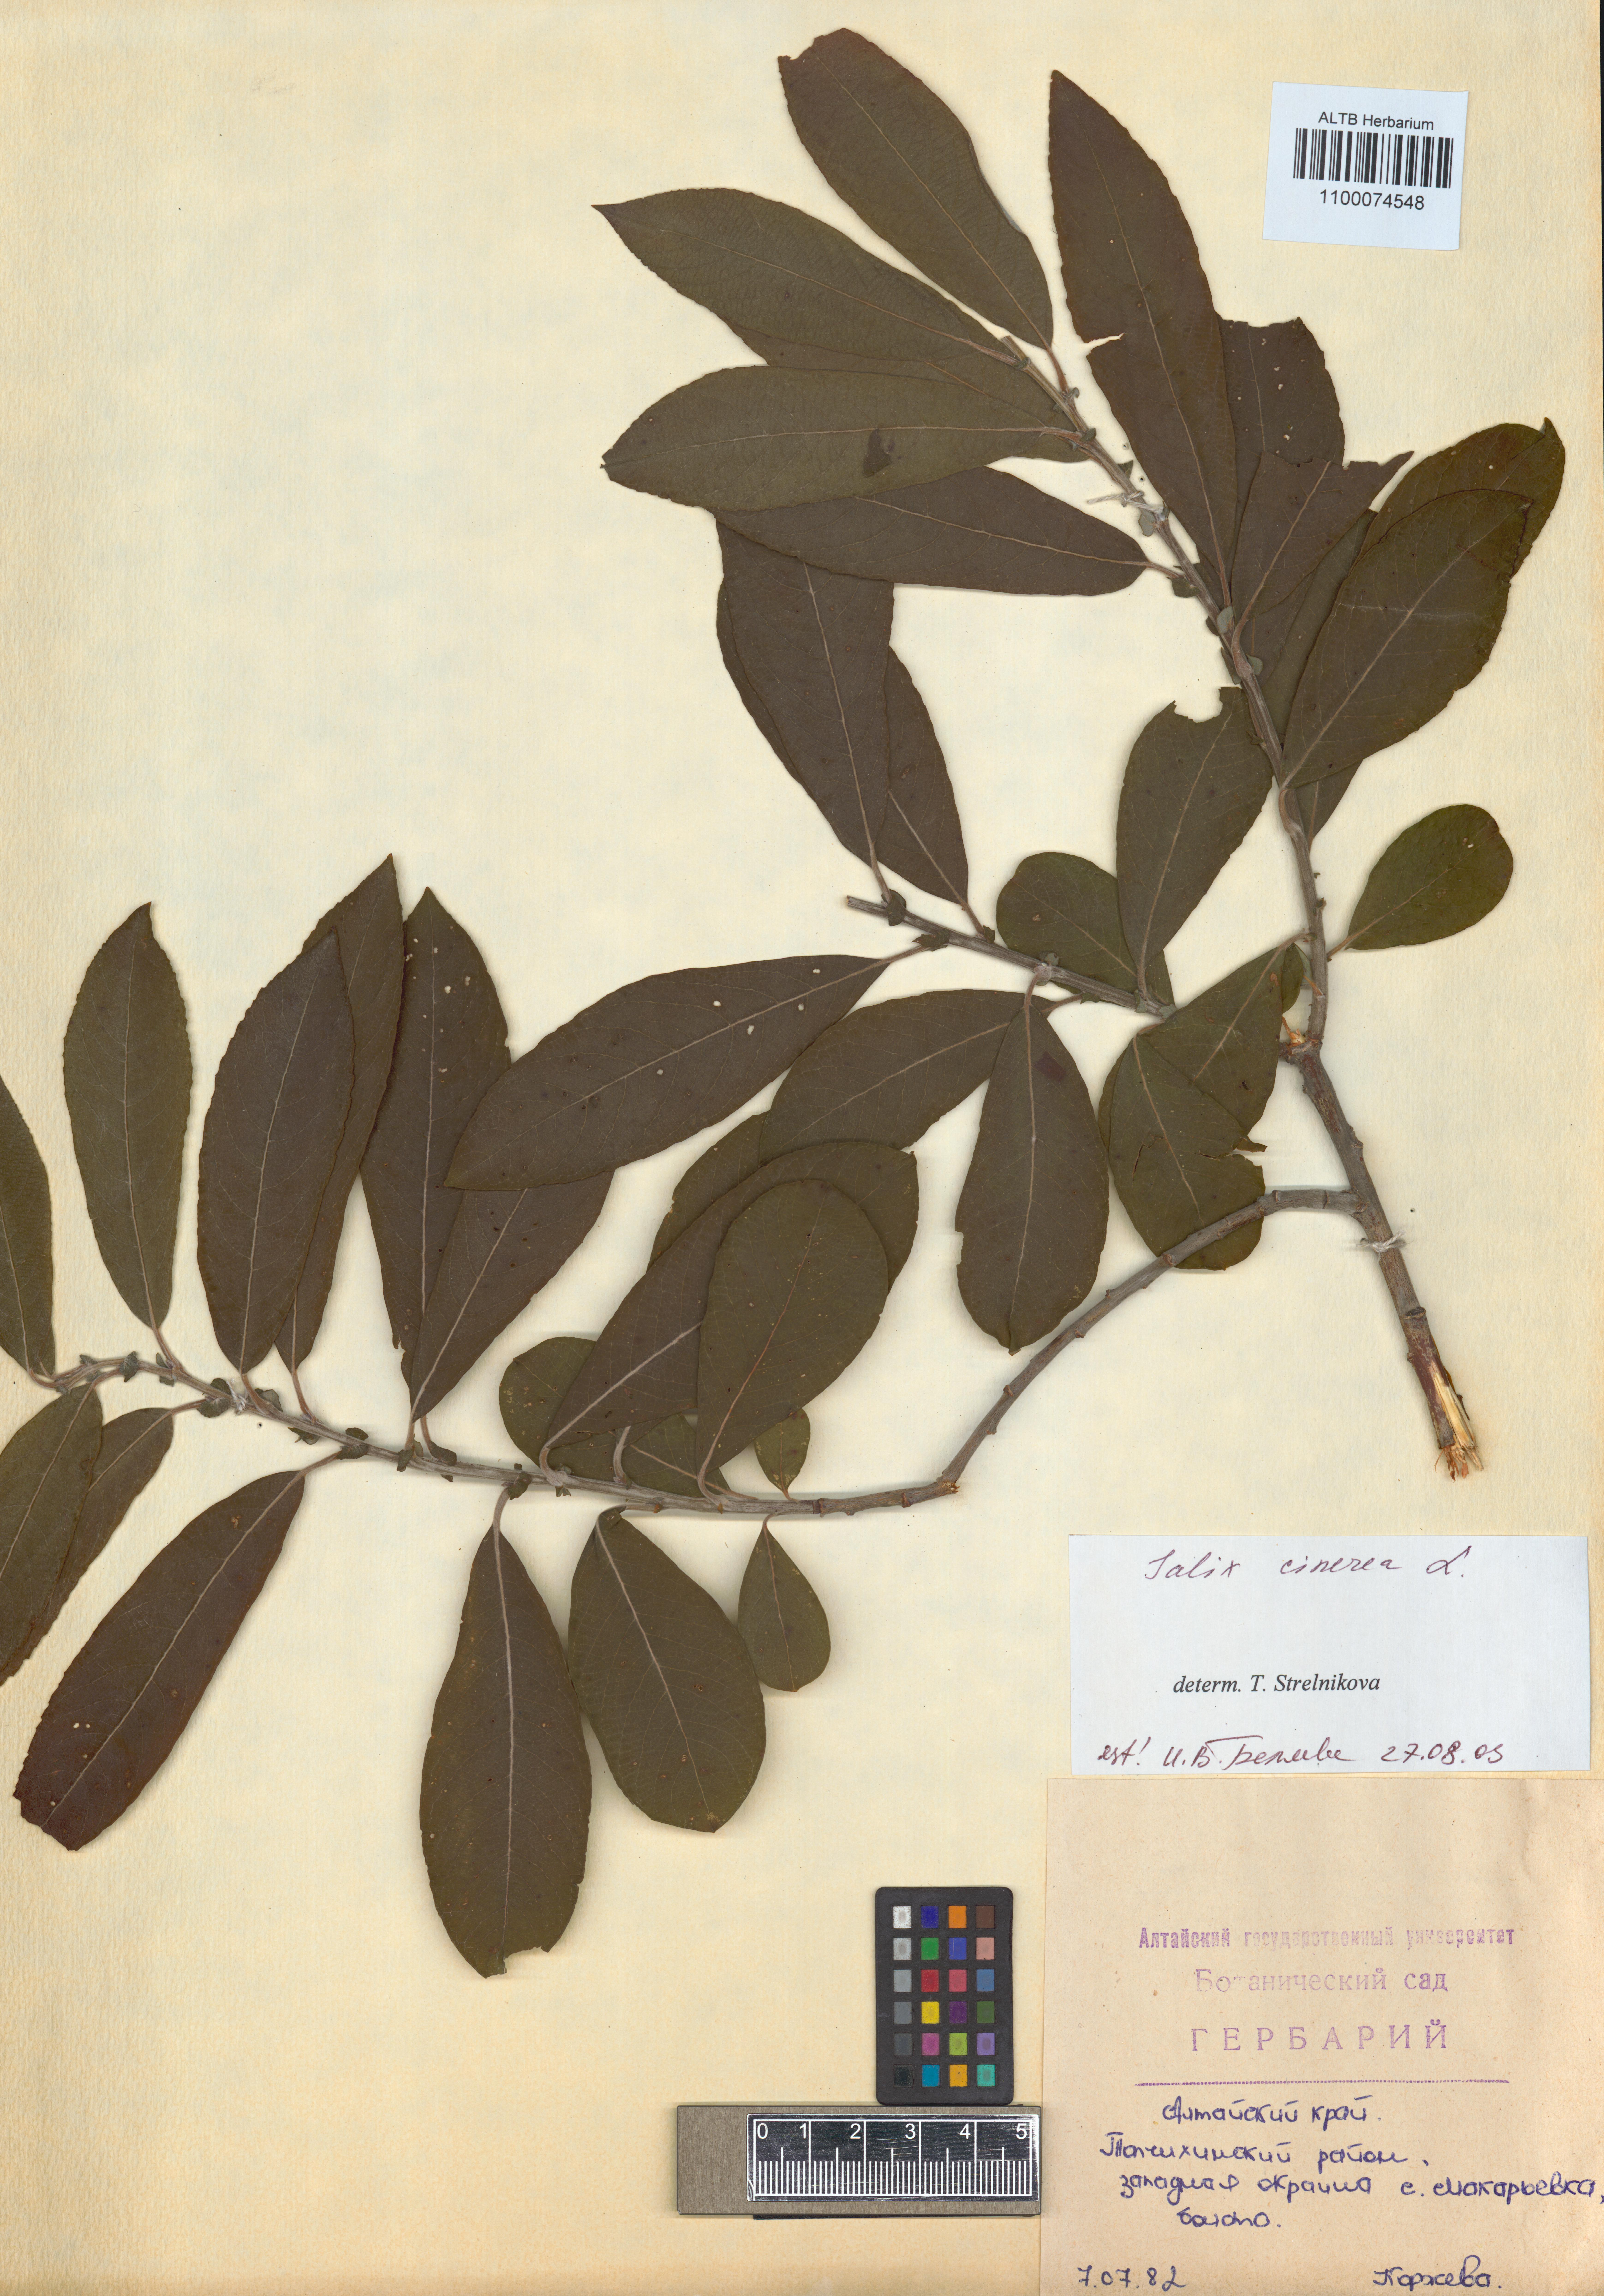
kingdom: Plantae
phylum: Tracheophyta
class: Magnoliopsida
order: Malpighiales
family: Salicaceae
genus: Salix
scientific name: Salix cinerea
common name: Common sallow
